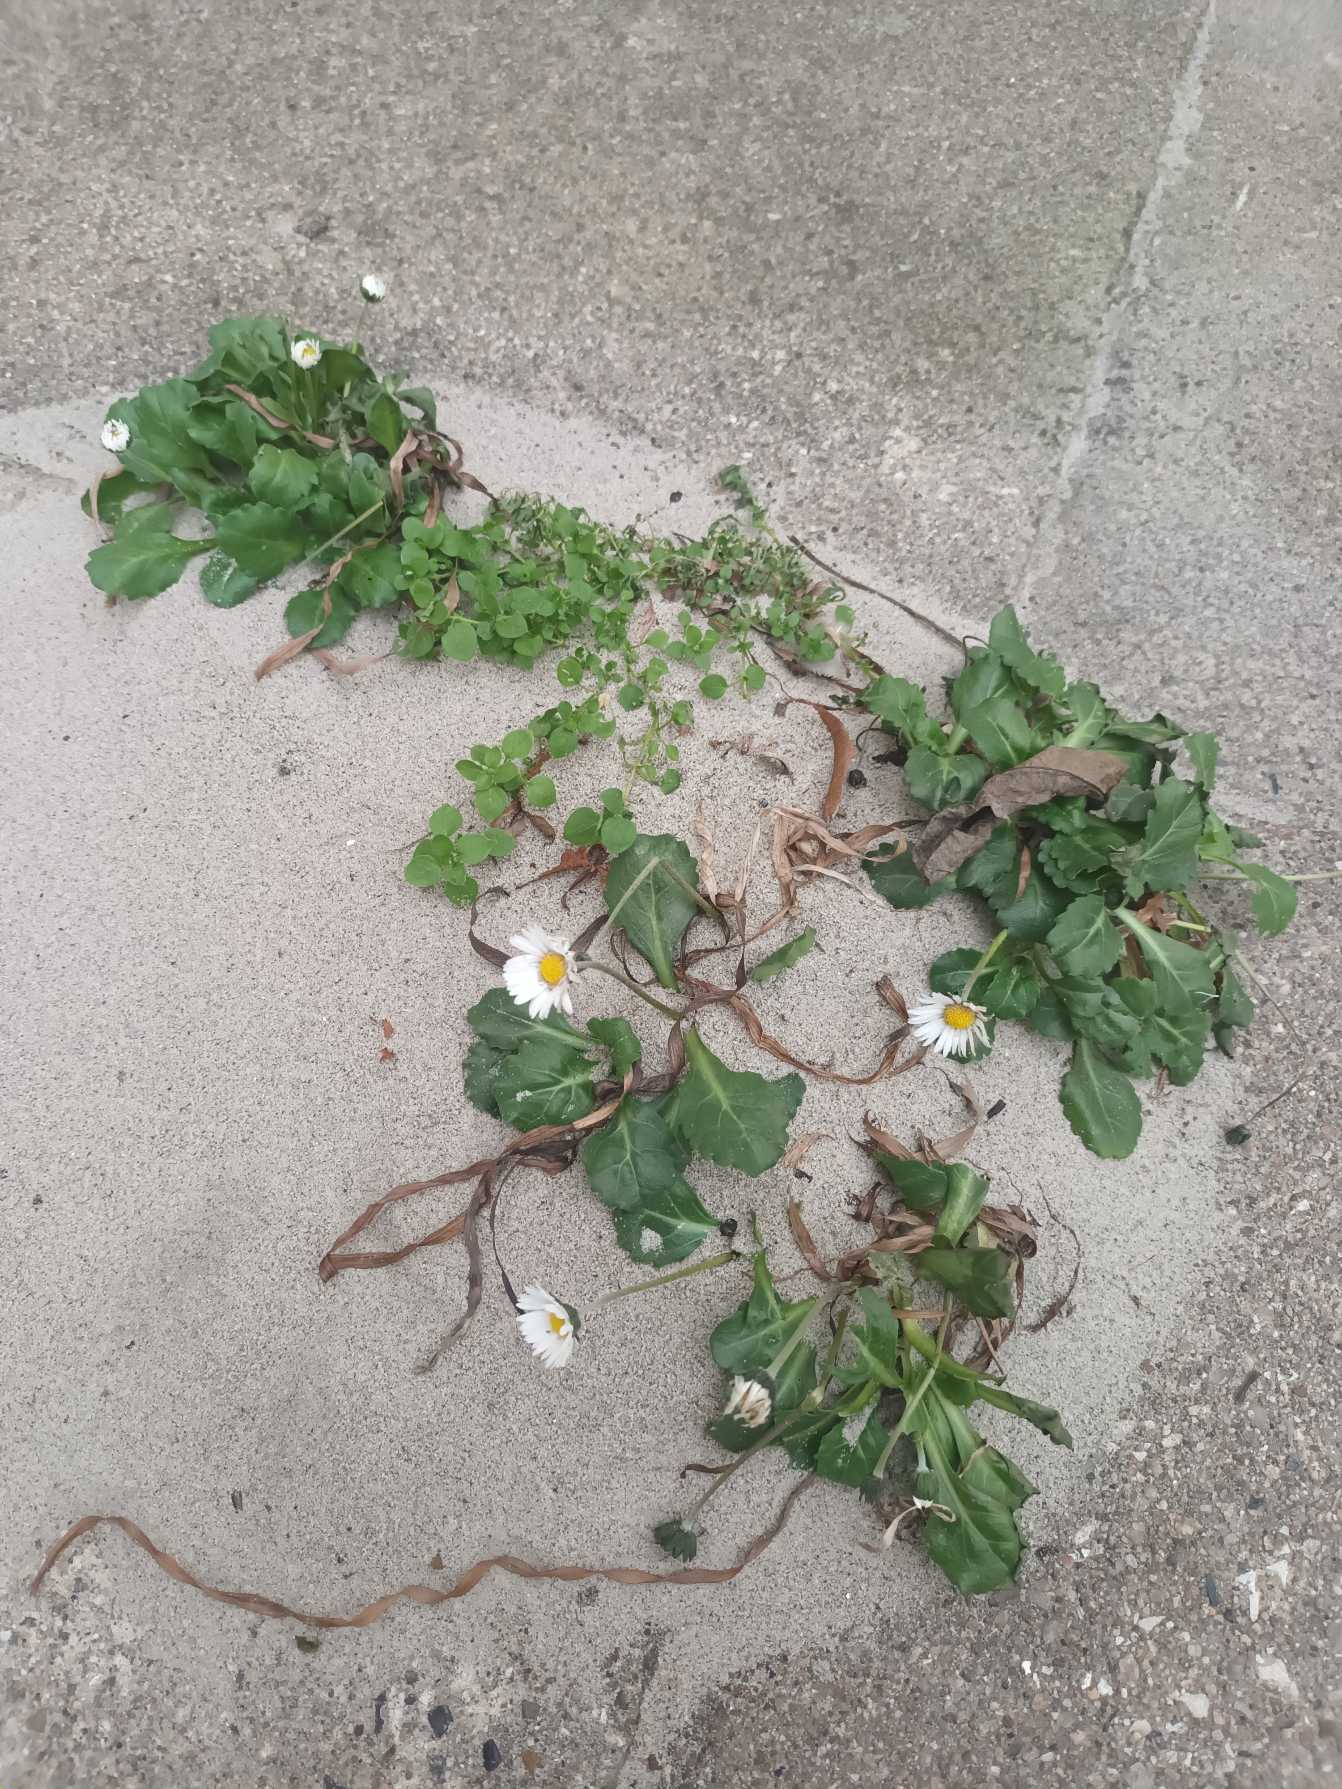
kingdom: Plantae
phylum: Tracheophyta
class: Magnoliopsida
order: Asterales
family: Asteraceae
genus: Bellis
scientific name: Bellis perennis
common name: Tusindfryd
